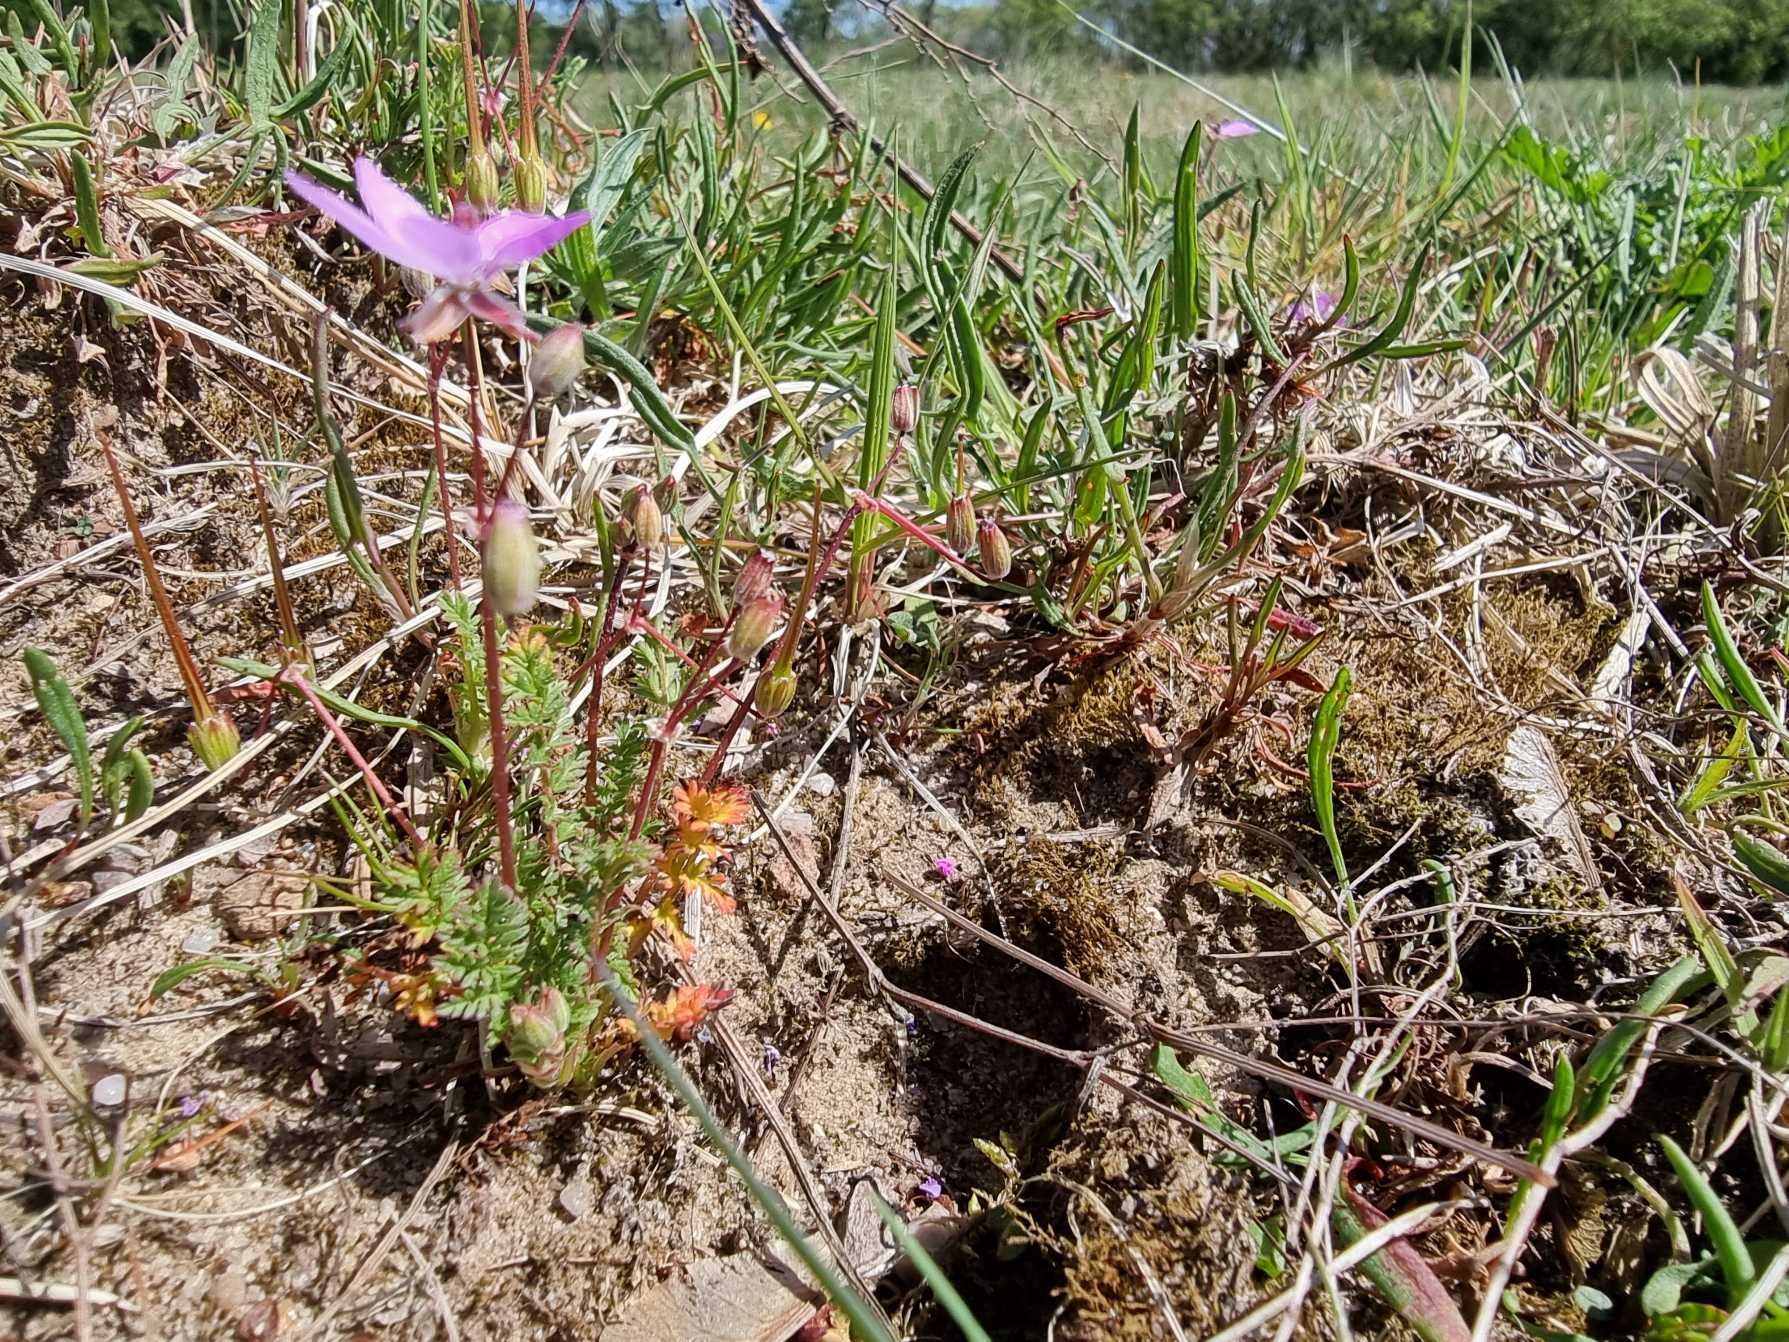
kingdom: Plantae
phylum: Tracheophyta
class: Magnoliopsida
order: Geraniales
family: Geraniaceae
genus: Erodium
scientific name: Erodium cicutarium
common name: Hejrenæb
